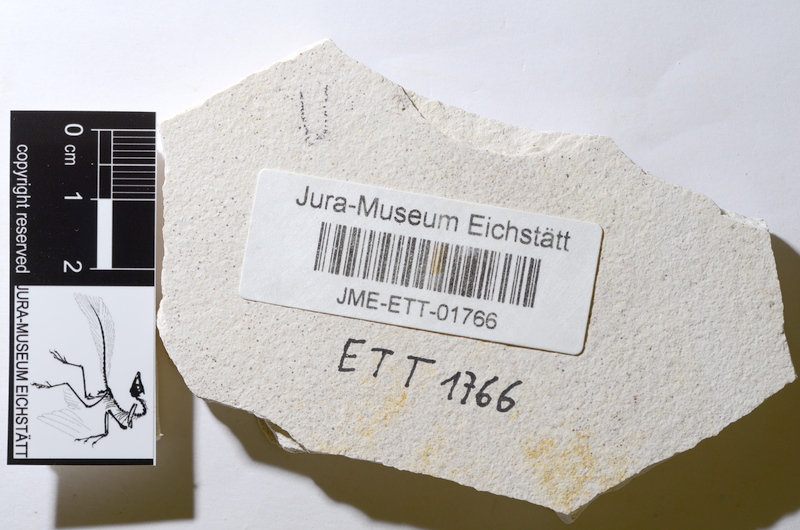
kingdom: Animalia
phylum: Chordata
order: Salmoniformes
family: Orthogonikleithridae
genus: Orthogonikleithrus
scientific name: Orthogonikleithrus hoelli
